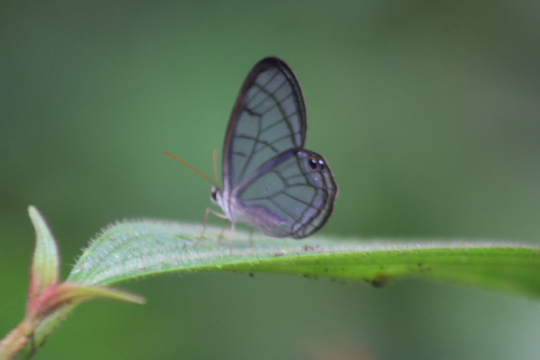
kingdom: Animalia
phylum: Arthropoda
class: Insecta
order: Lepidoptera
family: Nymphalidae
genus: Dulcedo
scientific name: Dulcedo polita
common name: Uncolored Clearwing-Satyr
